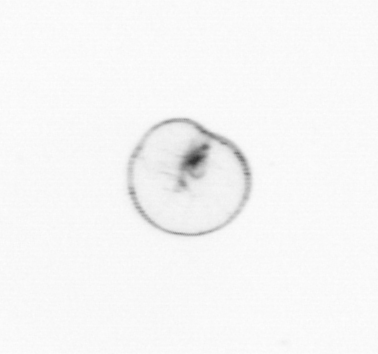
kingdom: Chromista
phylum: Myzozoa
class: Dinophyceae
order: Noctilucales
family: Noctilucaceae
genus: Noctiluca
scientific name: Noctiluca scintillans
